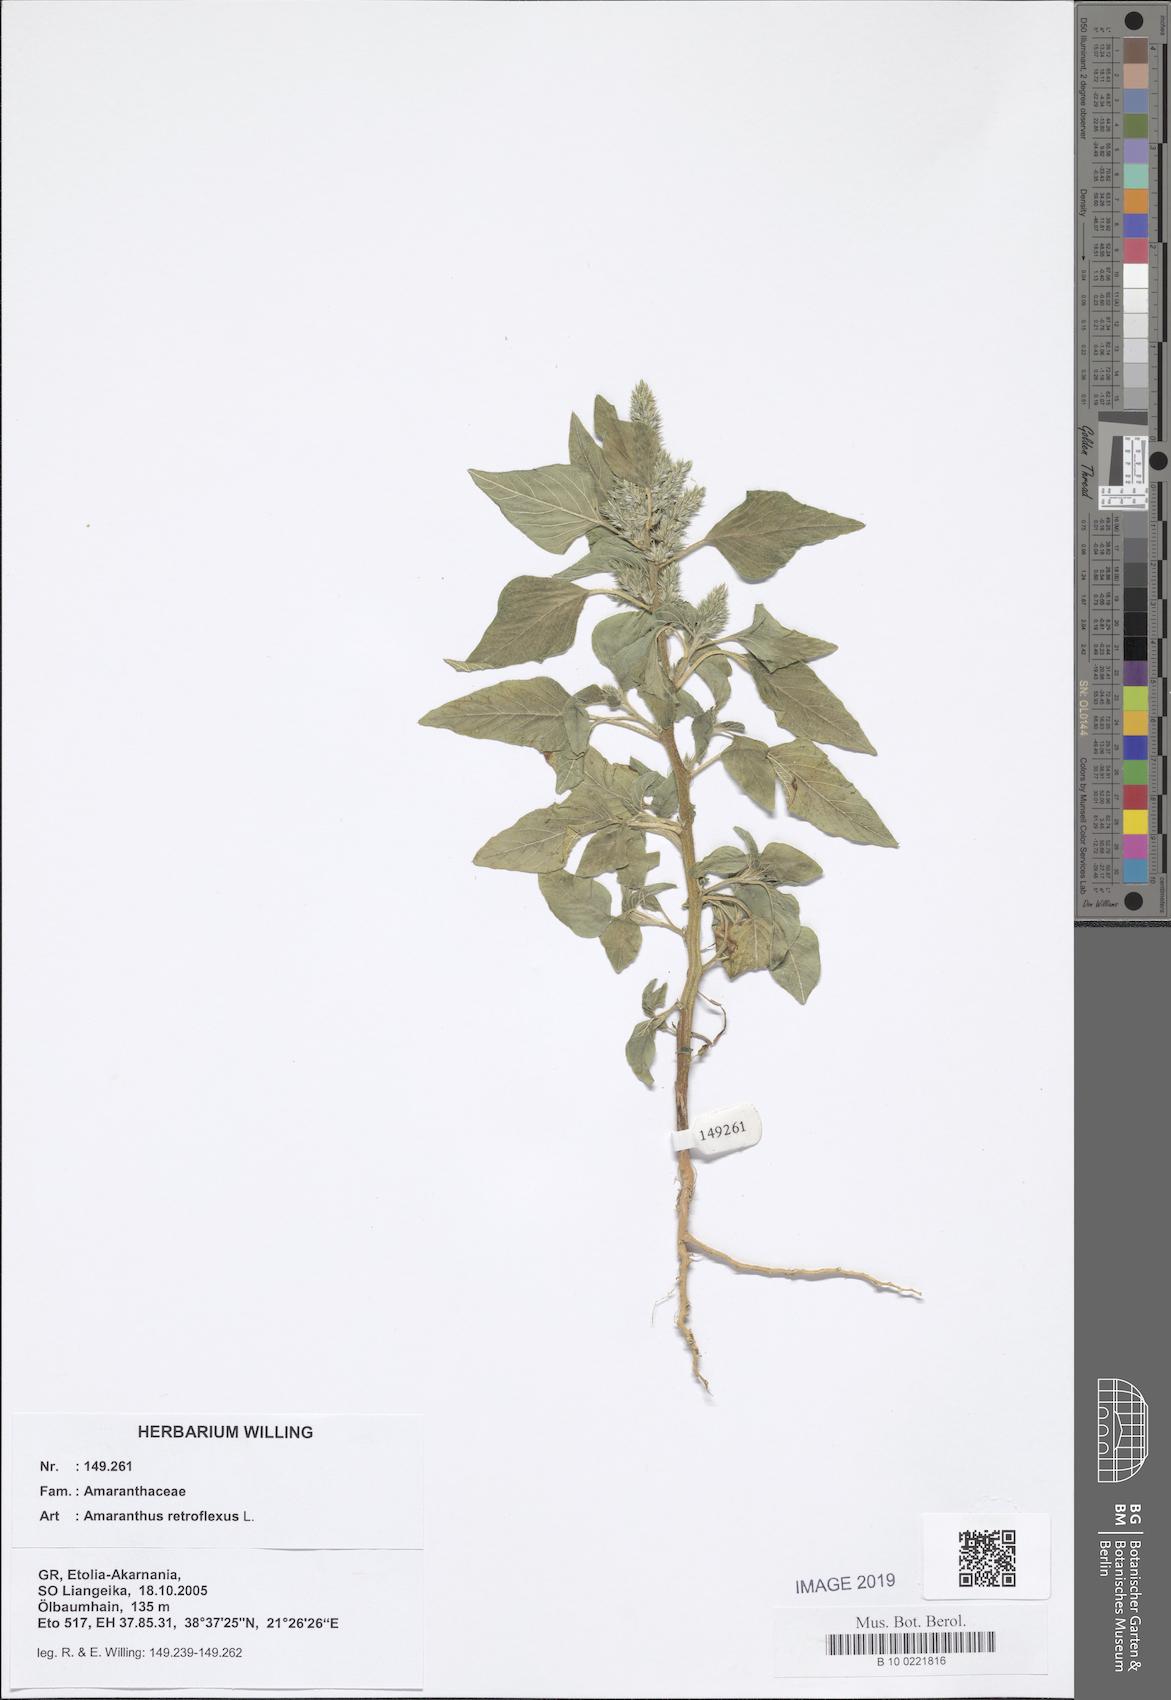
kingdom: Plantae
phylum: Tracheophyta
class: Magnoliopsida
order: Caryophyllales
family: Amaranthaceae
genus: Amaranthus
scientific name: Amaranthus retroflexus
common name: Redroot amaranth
